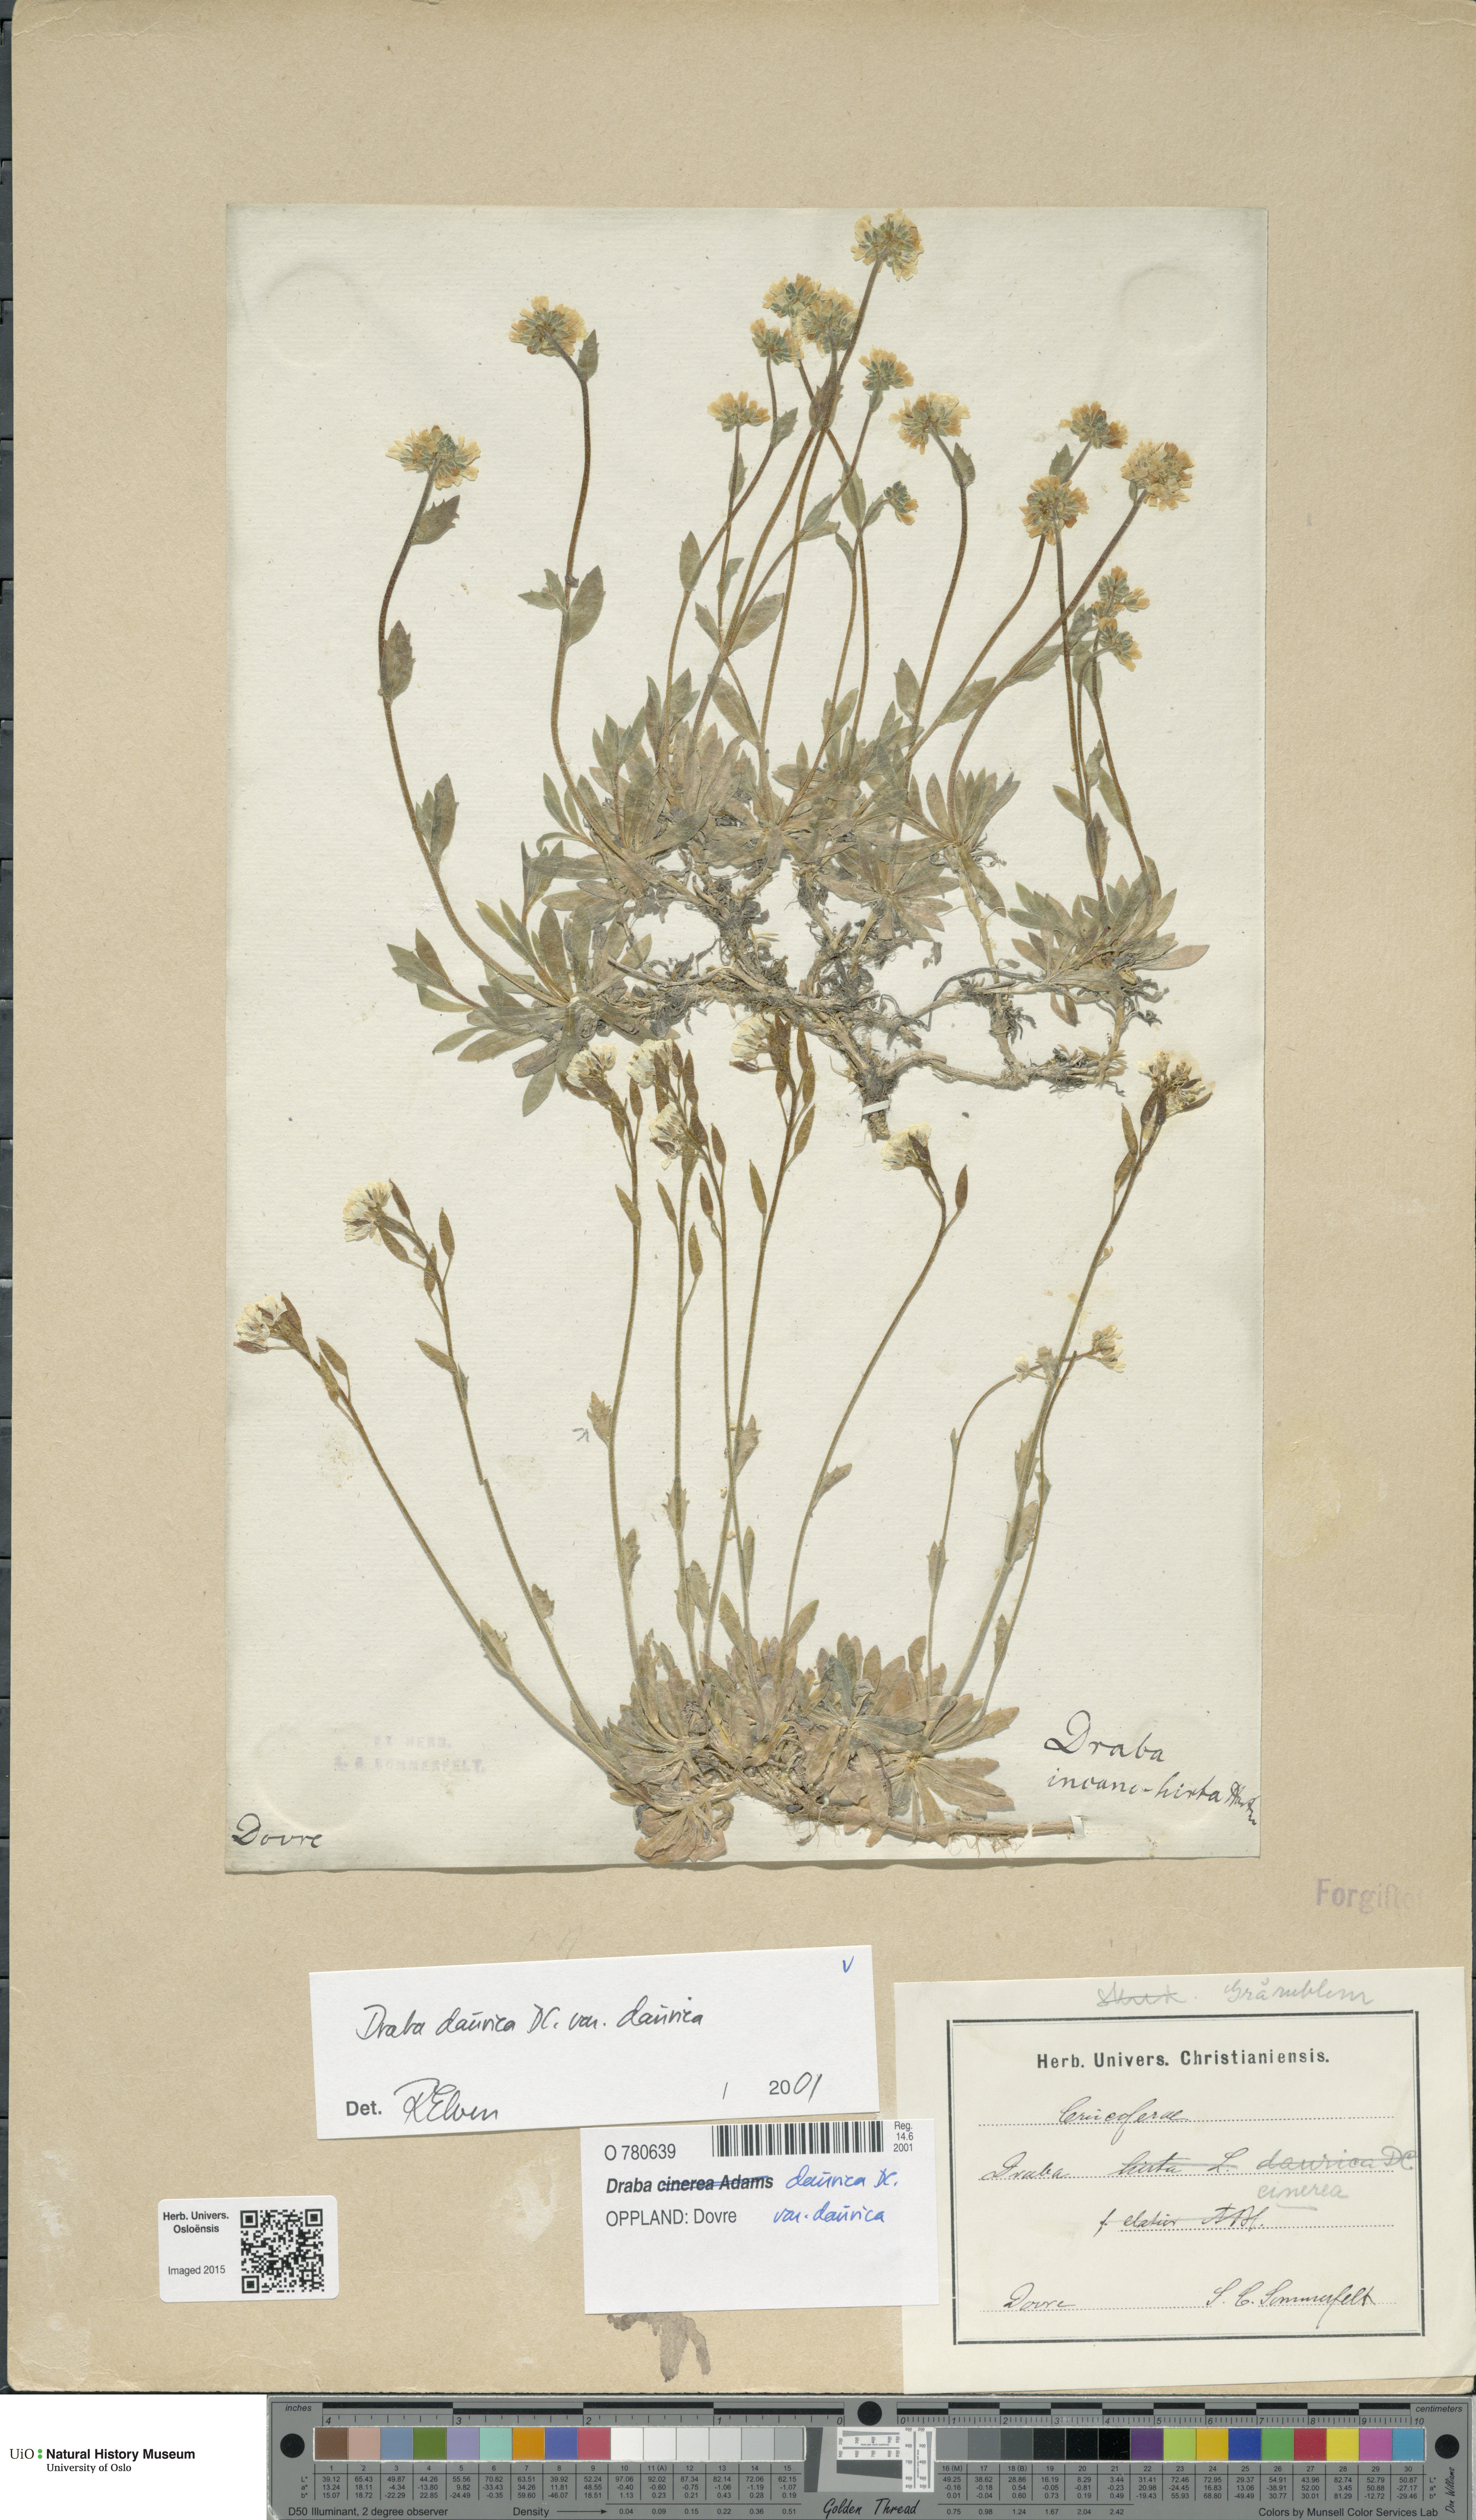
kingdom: Plantae
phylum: Tracheophyta
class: Magnoliopsida
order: Brassicales
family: Brassicaceae
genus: Draba
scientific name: Draba glabella
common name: Glaucous draba
